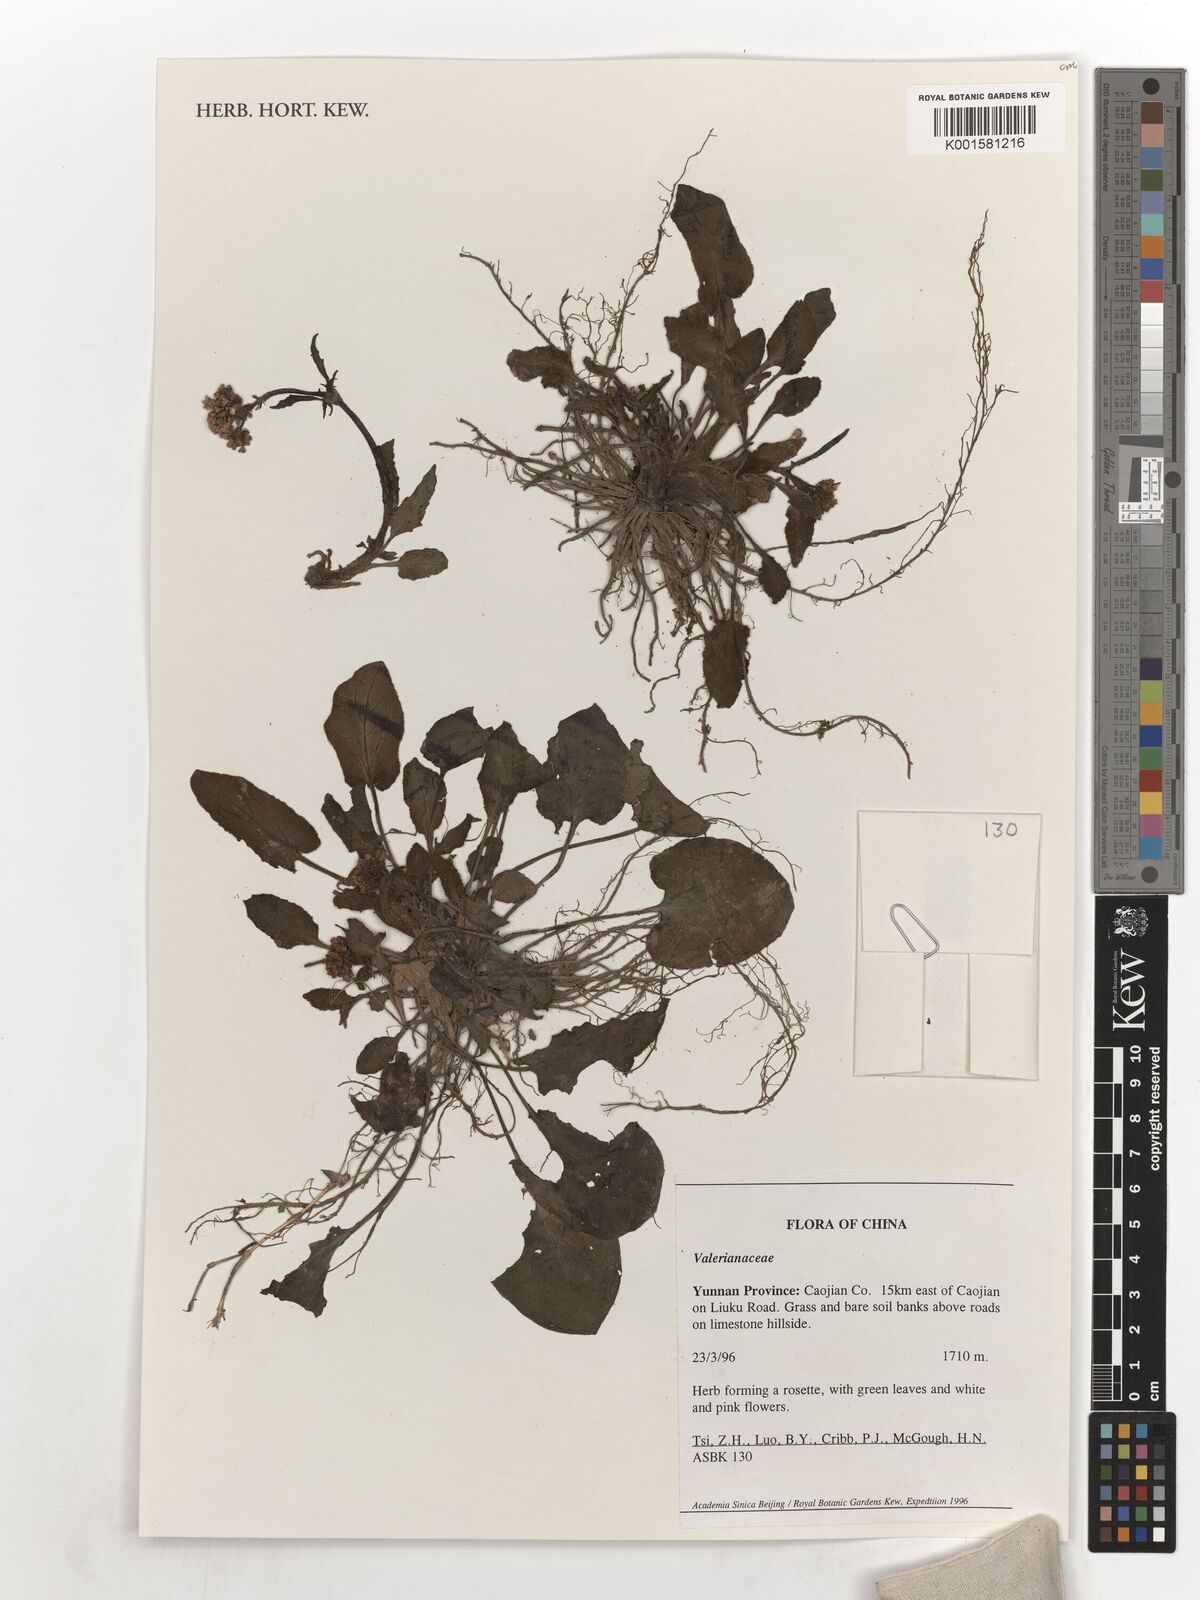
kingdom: Plantae
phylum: Tracheophyta
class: Magnoliopsida
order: Dipsacales
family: Valerianaceae
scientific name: Valerianaceae
